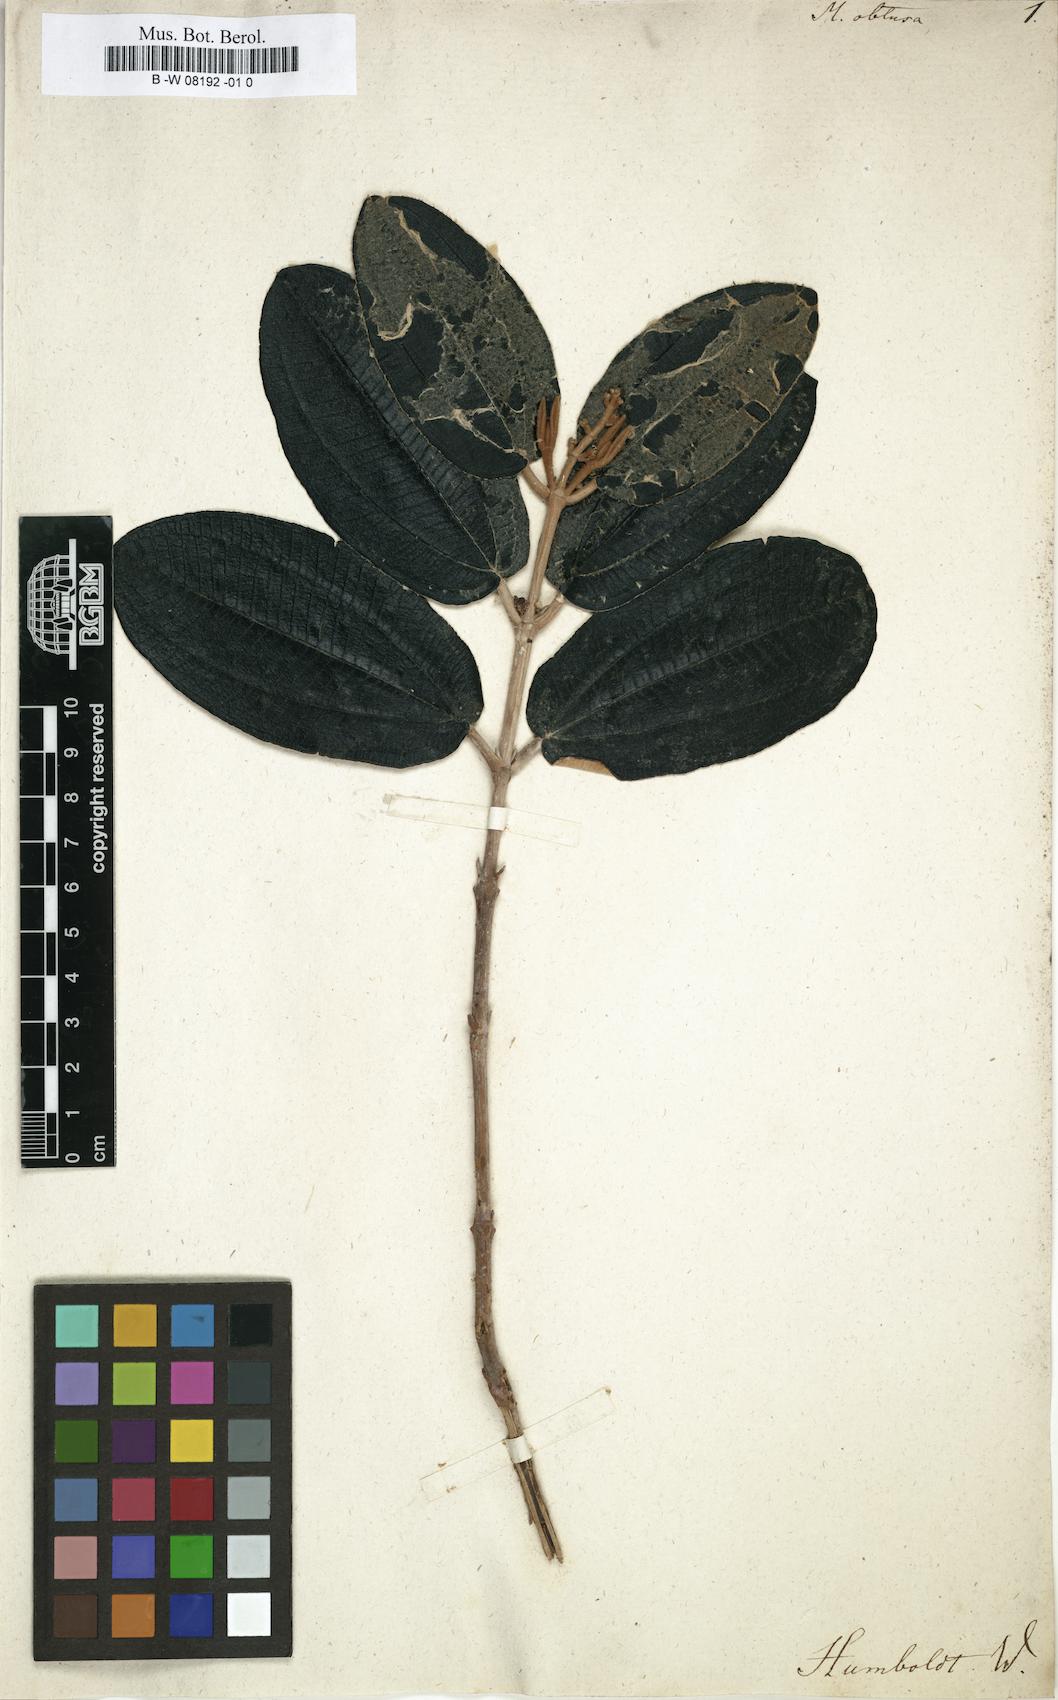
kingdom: Plantae
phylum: Tracheophyta
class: Magnoliopsida
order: Myrtales
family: Melastomataceae
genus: Melastoma
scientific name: Melastoma
